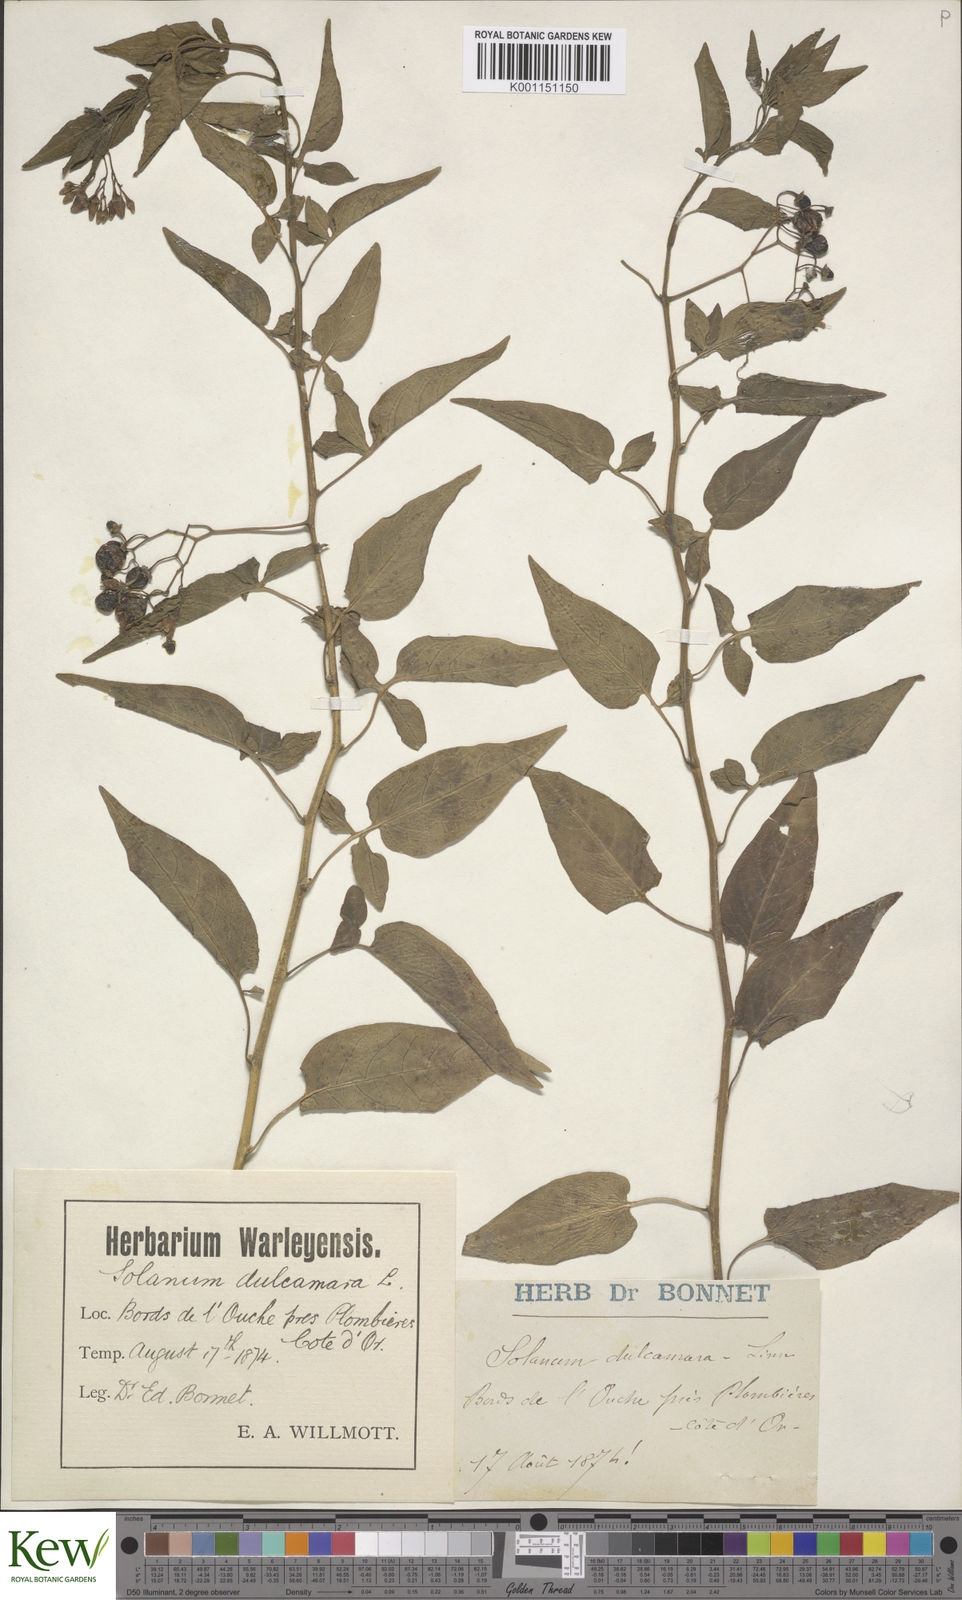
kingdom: Plantae
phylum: Tracheophyta
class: Magnoliopsida
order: Solanales
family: Solanaceae
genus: Solanum
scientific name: Solanum dulcamara
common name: Climbing nightshade
